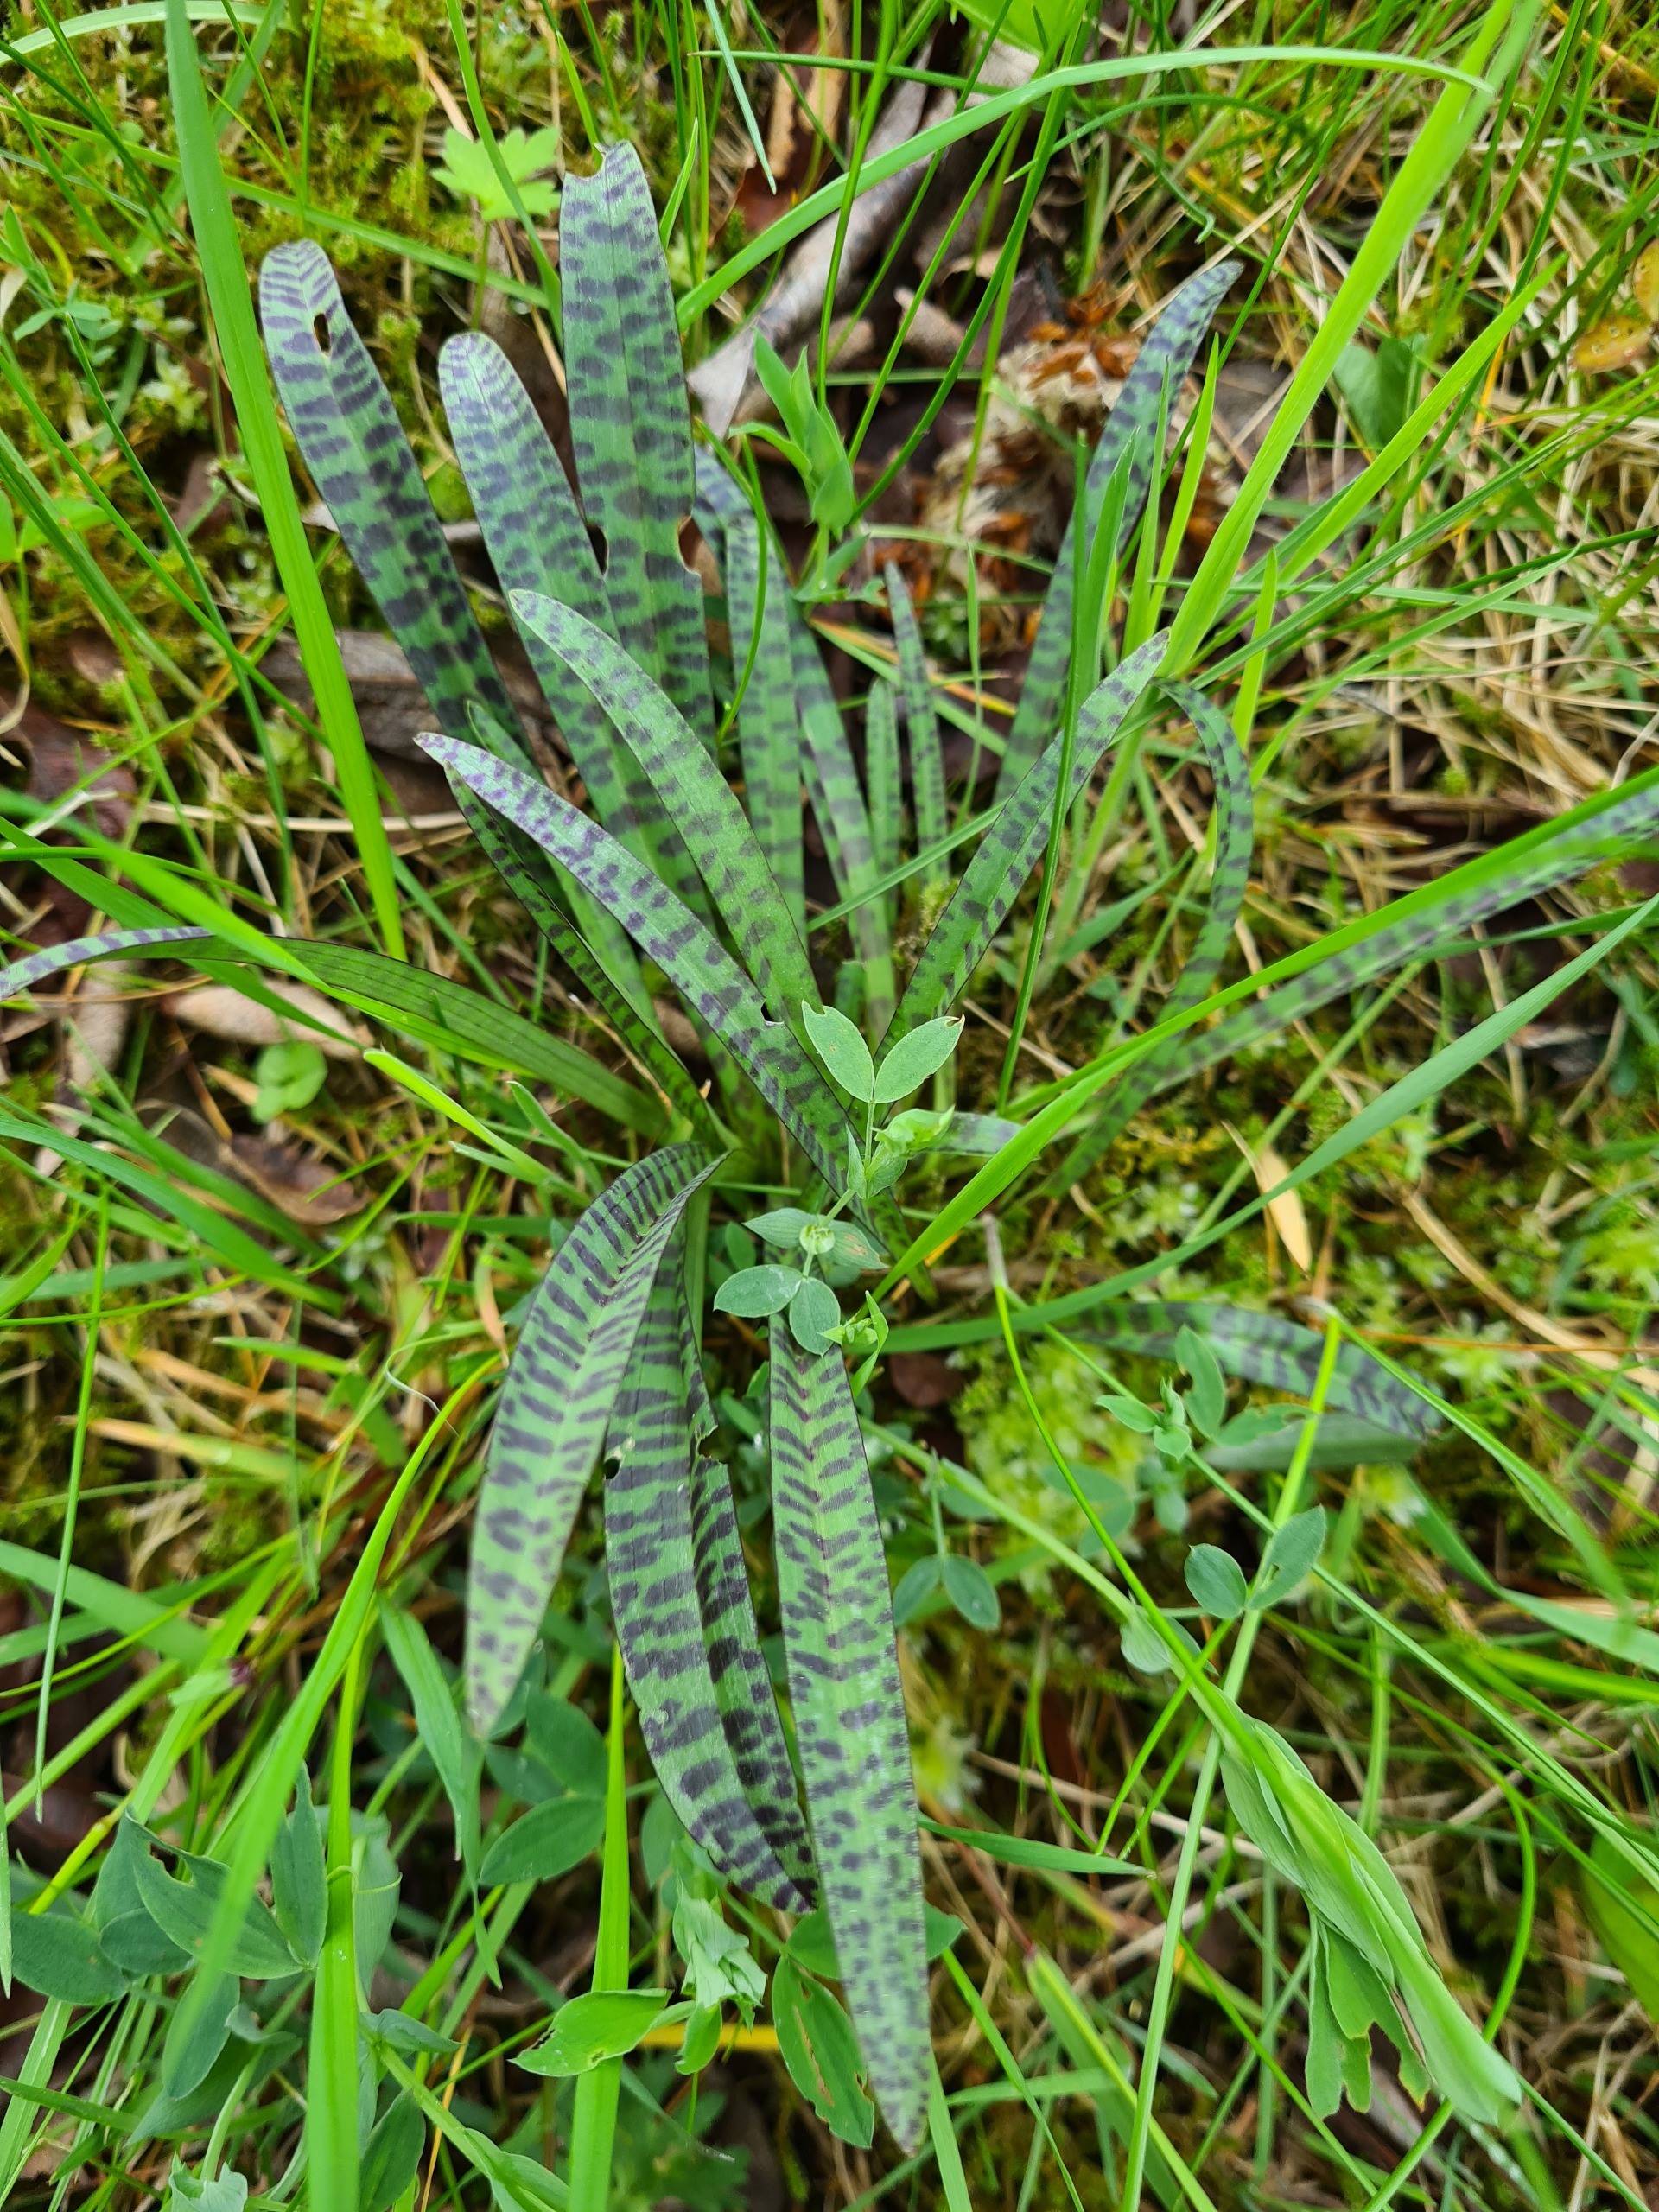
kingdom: Plantae
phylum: Tracheophyta
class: Liliopsida
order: Asparagales
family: Orchidaceae
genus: Dactylorhiza
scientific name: Dactylorhiza maculata
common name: Plettet gøgeurt
